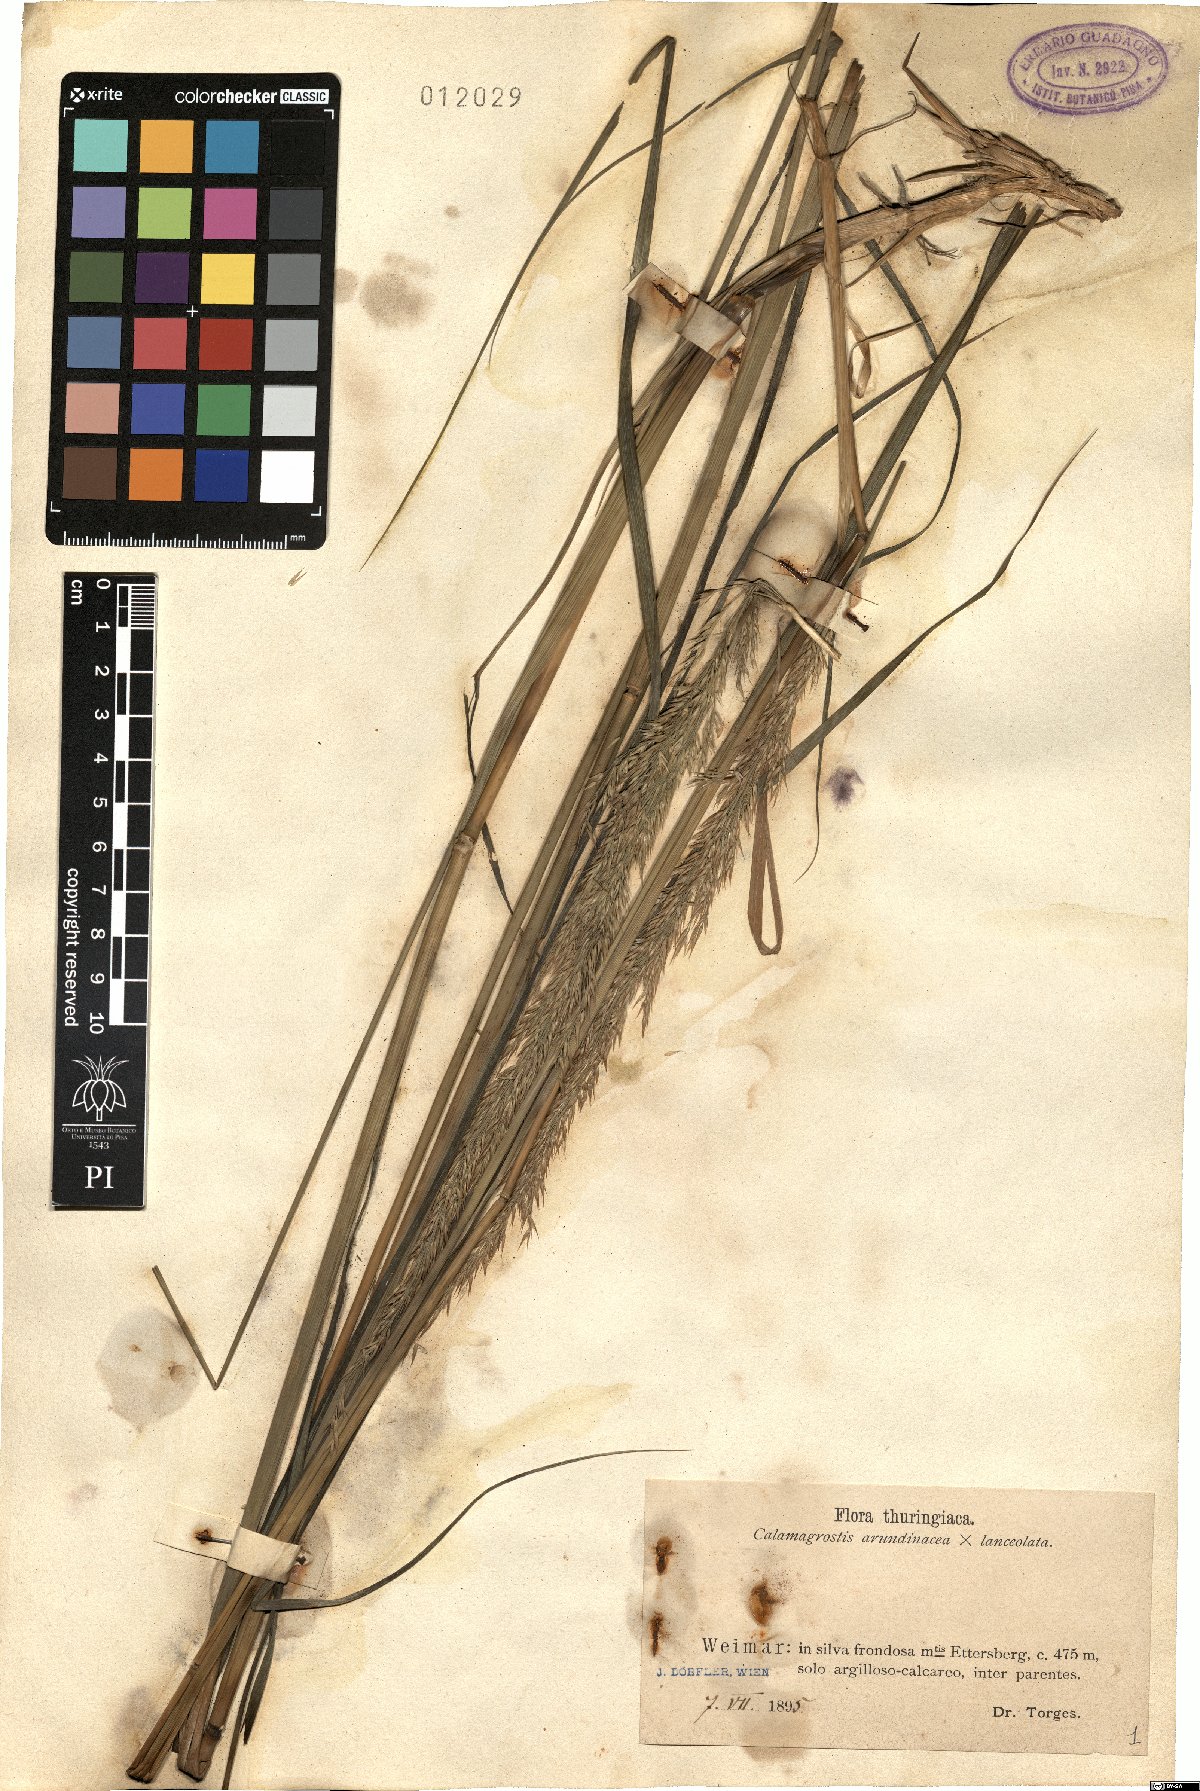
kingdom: Plantae
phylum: Tracheophyta
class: Liliopsida
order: Poales
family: Poaceae
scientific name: Poaceae
